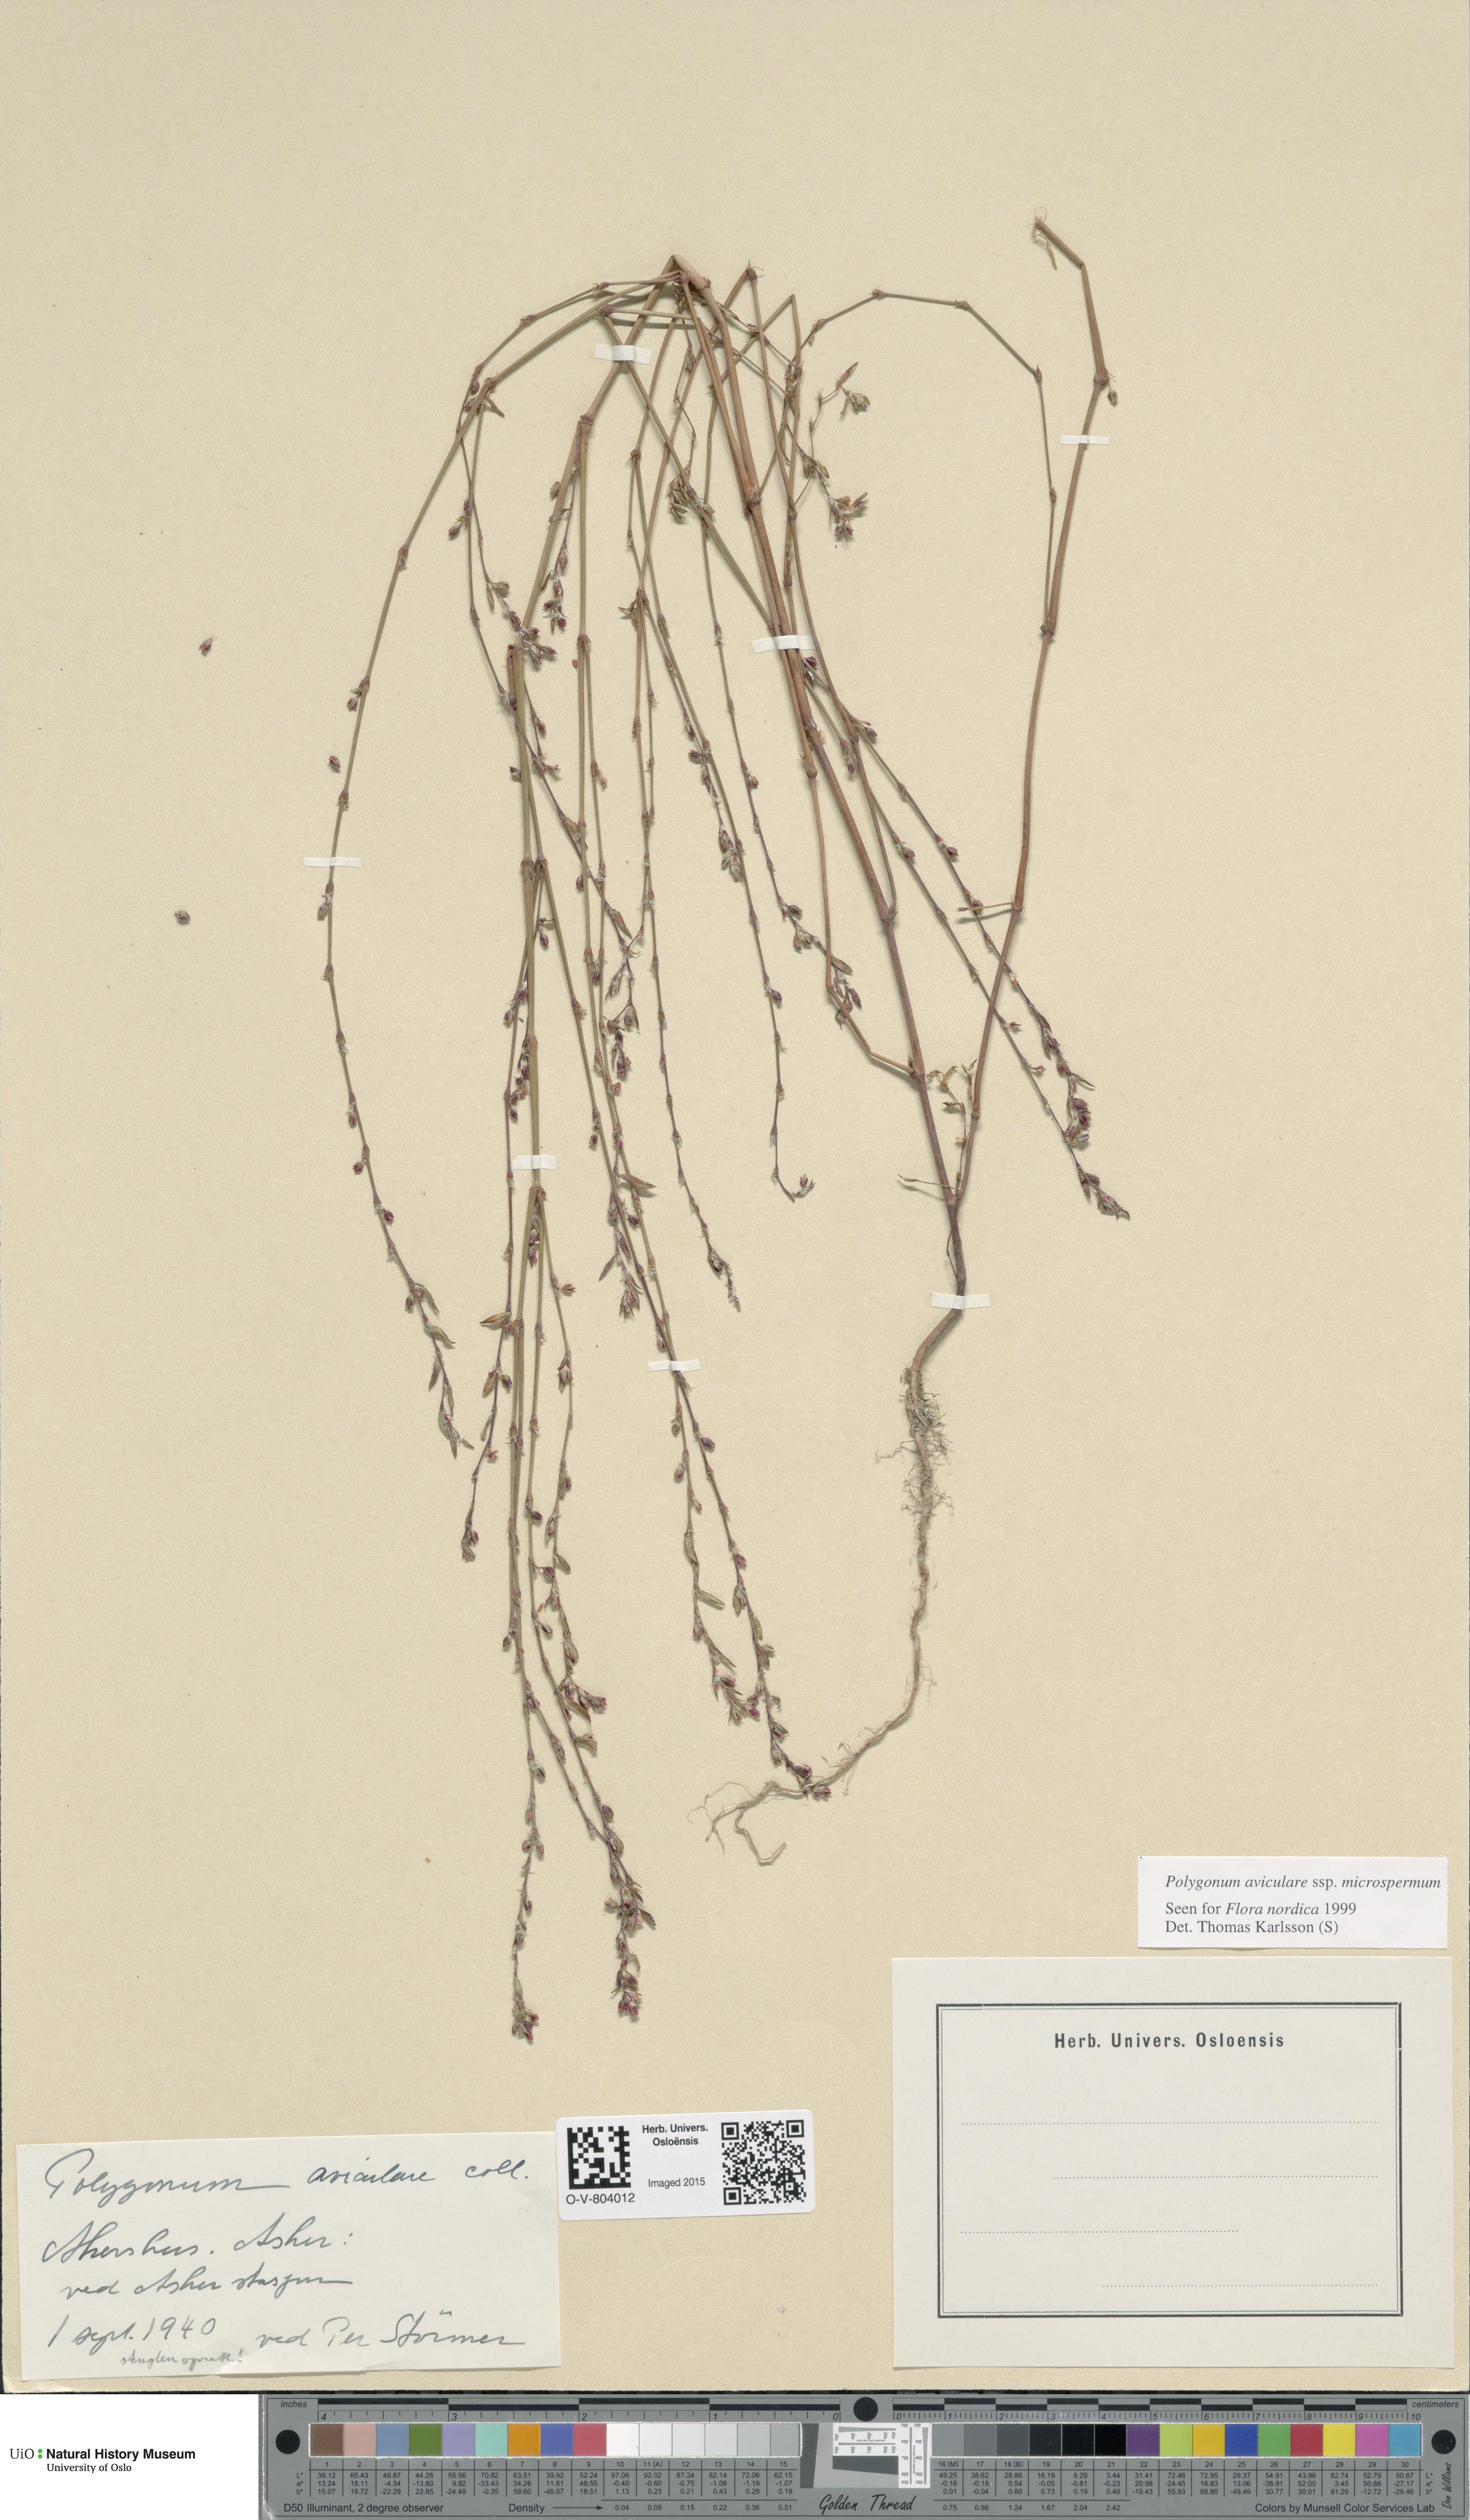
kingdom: Plantae
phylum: Tracheophyta
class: Magnoliopsida
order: Caryophyllales
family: Polygonaceae
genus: Polygonum
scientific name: Polygonum arenastrum
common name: Equal-leaved knotgrass
